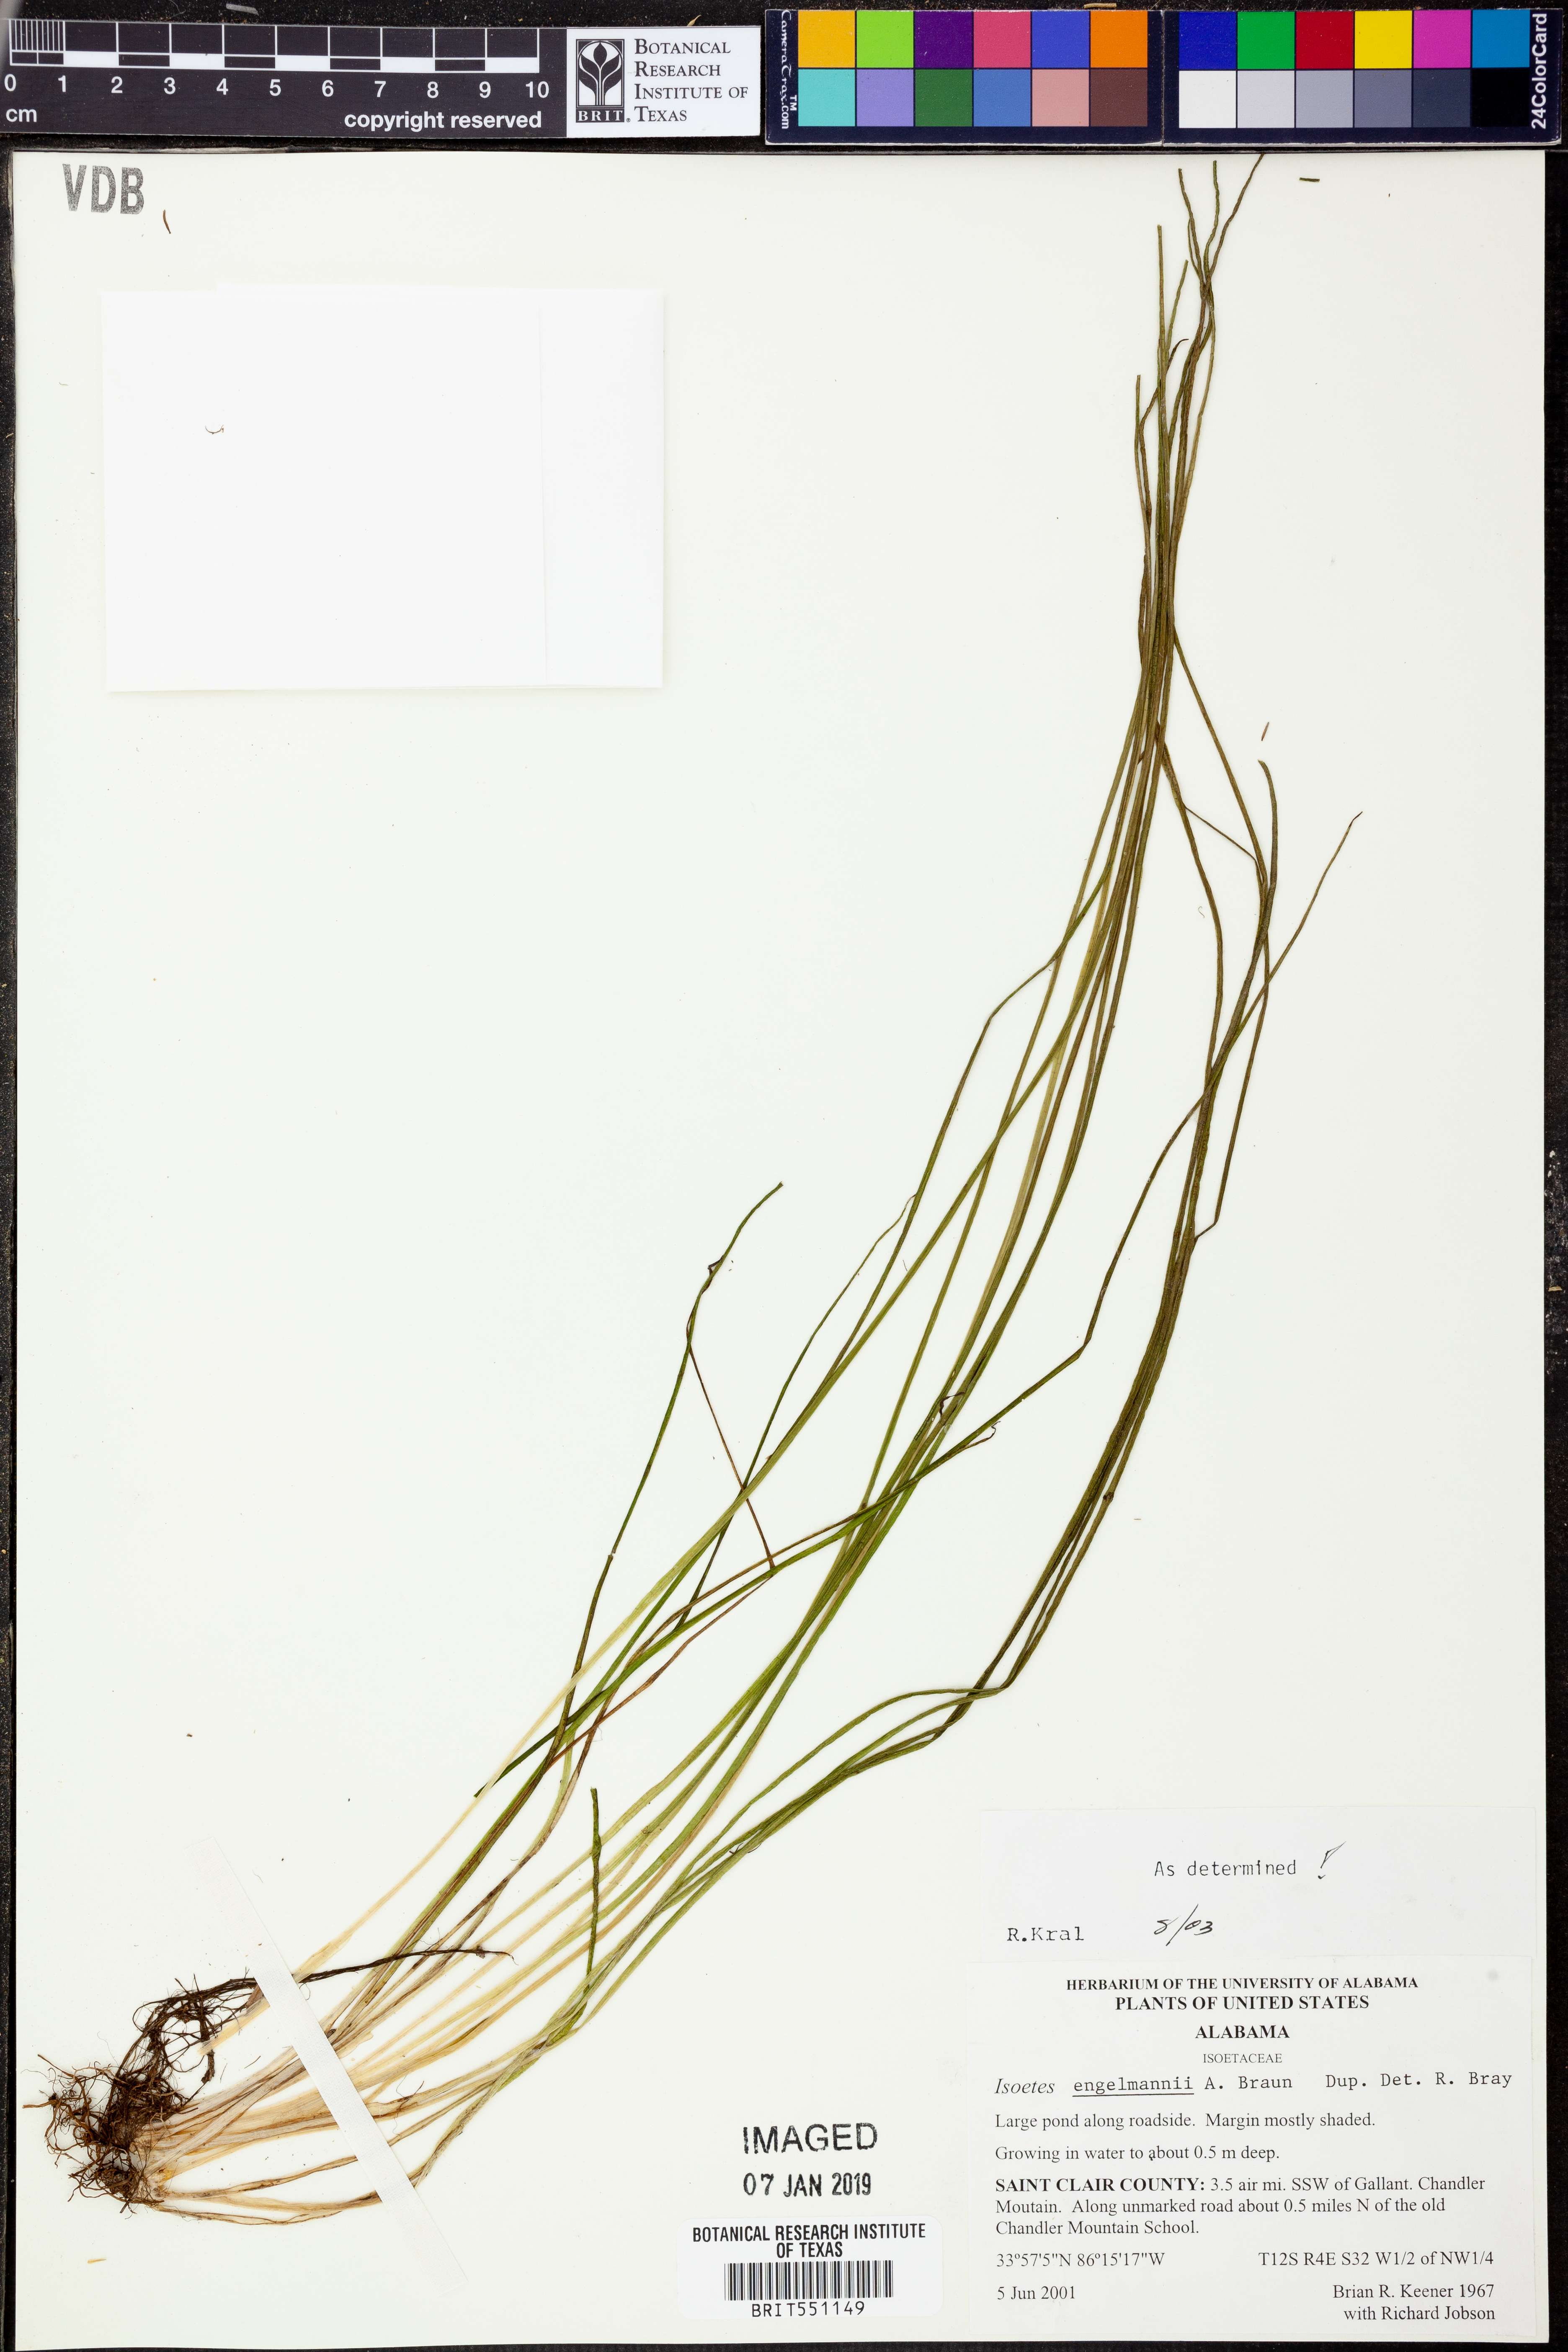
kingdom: Plantae
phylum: Tracheophyta
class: Lycopodiopsida
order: Isoetales
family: Isoetaceae
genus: Isoetes
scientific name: Isoetes valida
